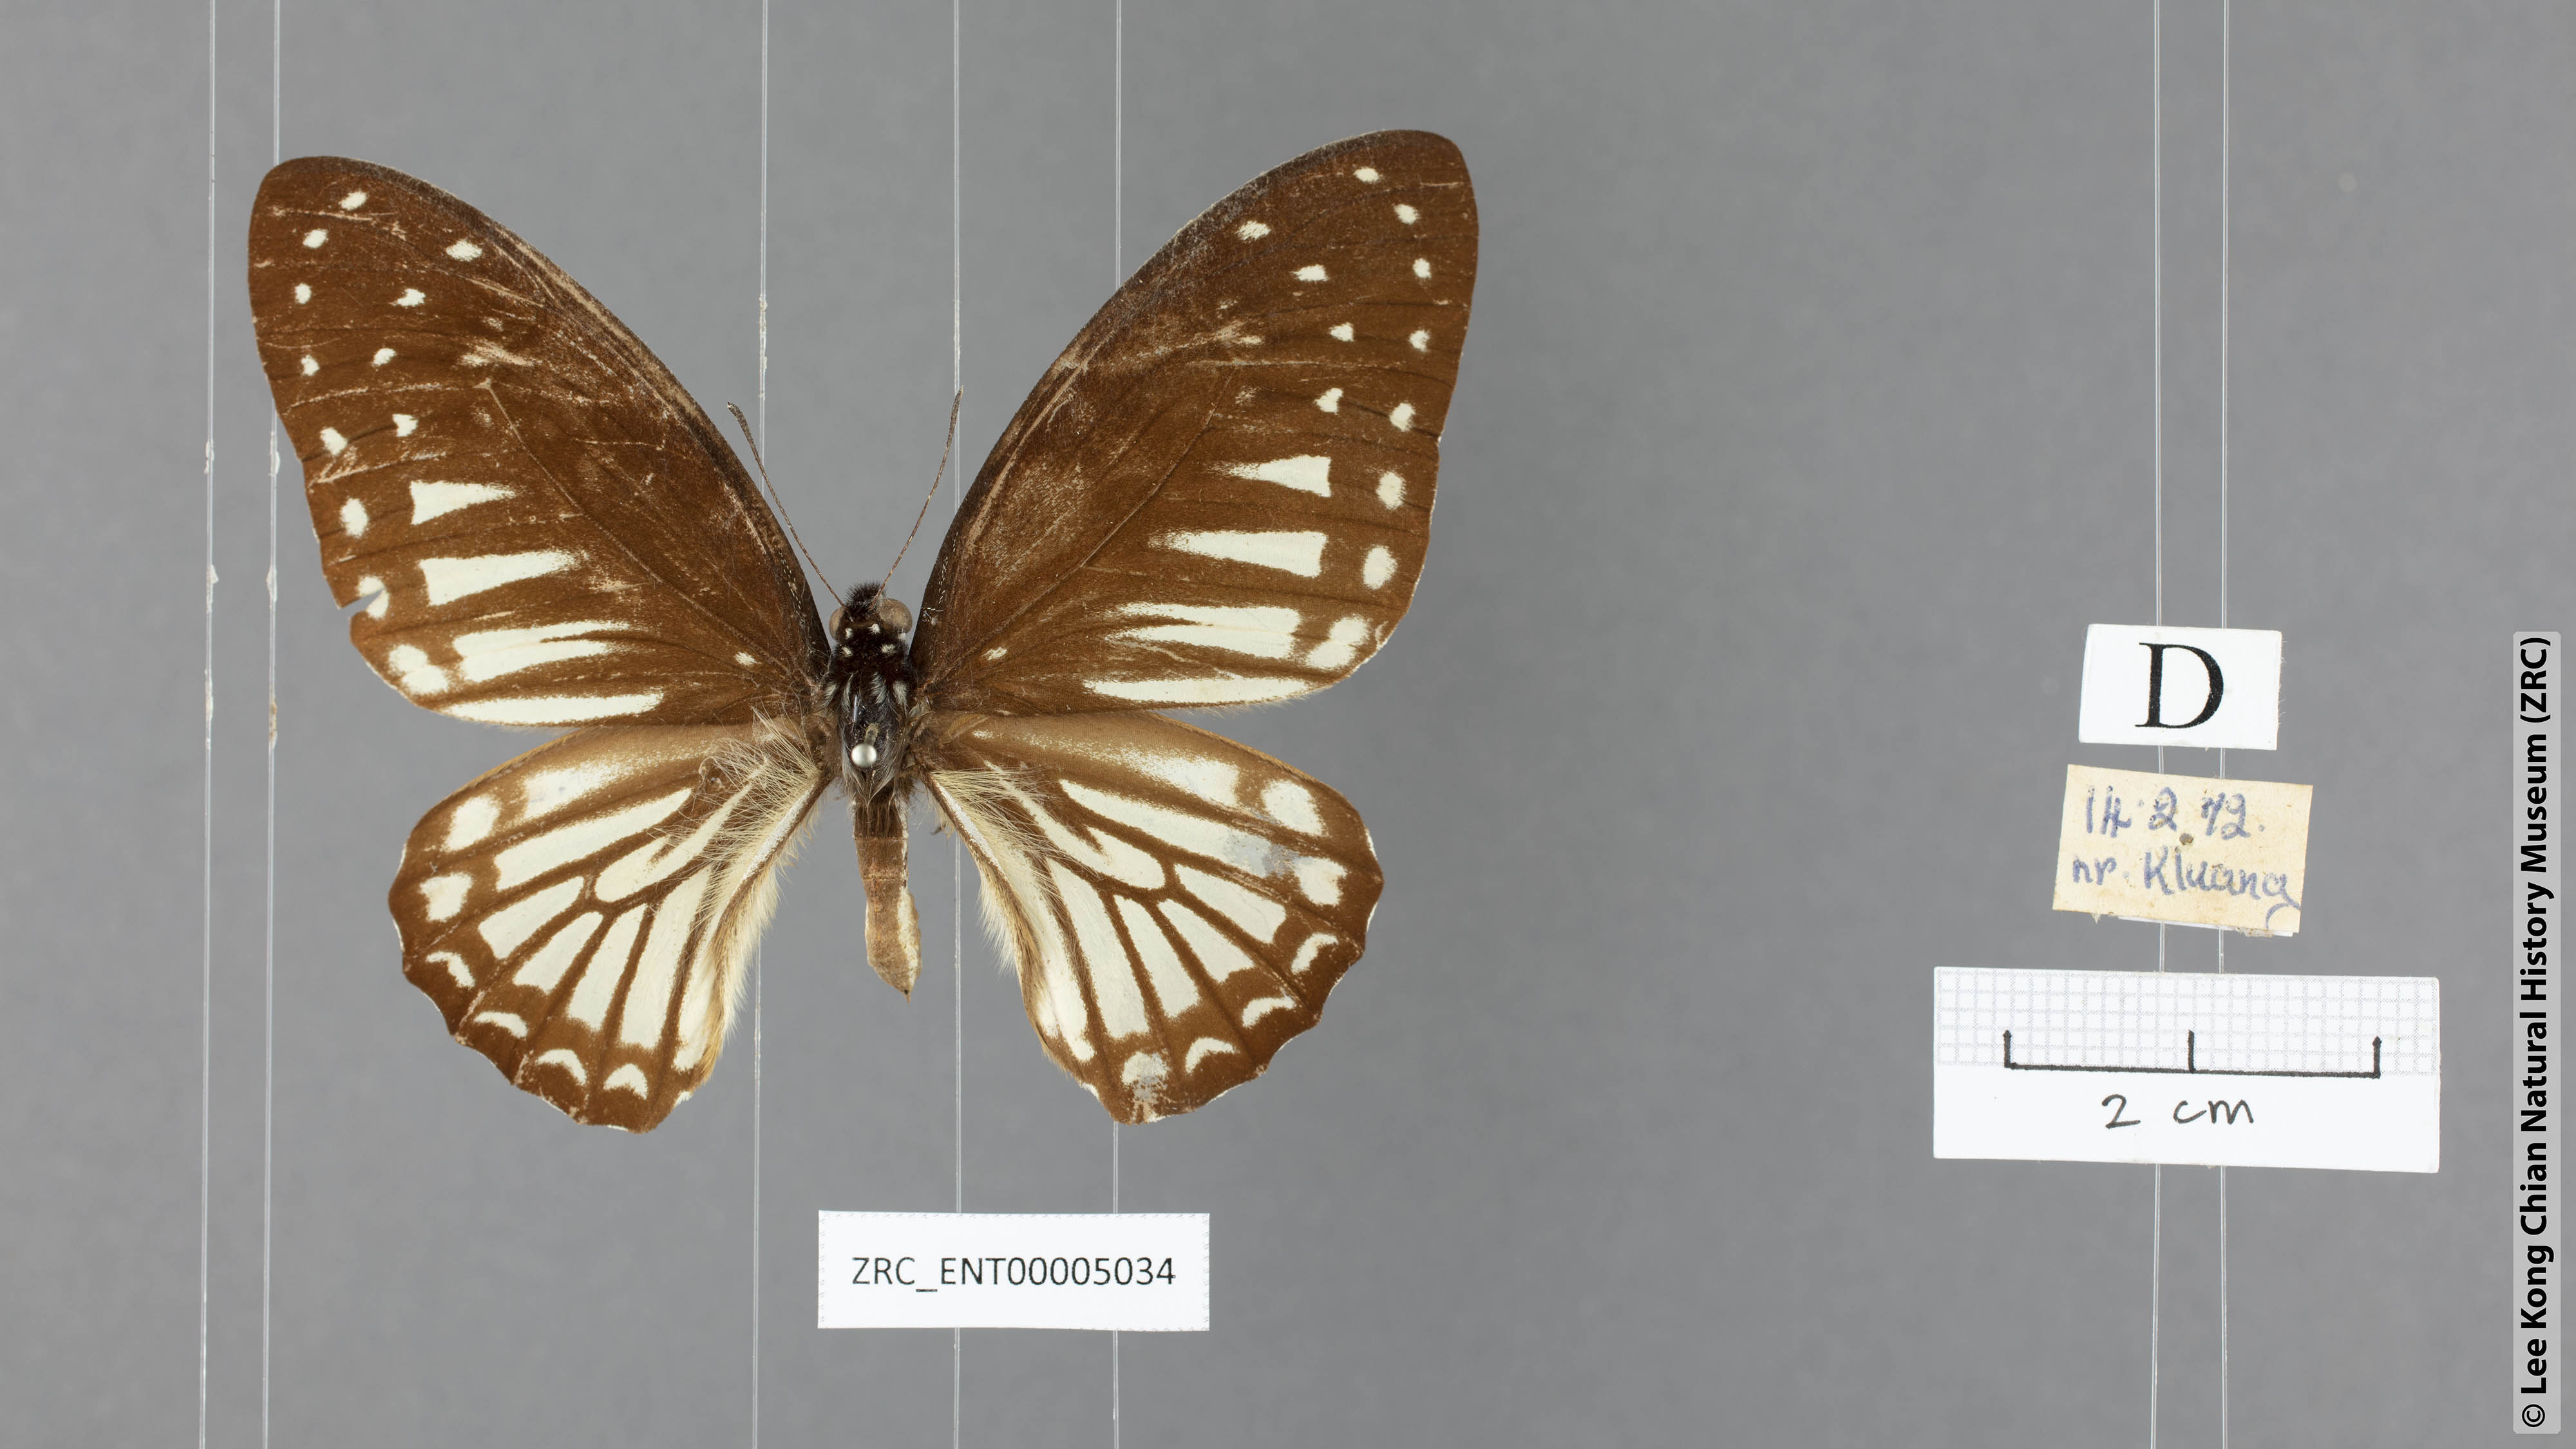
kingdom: Animalia
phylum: Arthropoda
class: Insecta
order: Lepidoptera
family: Papilionidae
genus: Graphium
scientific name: Graphium ramaceus
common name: Pendlebury's zebra
